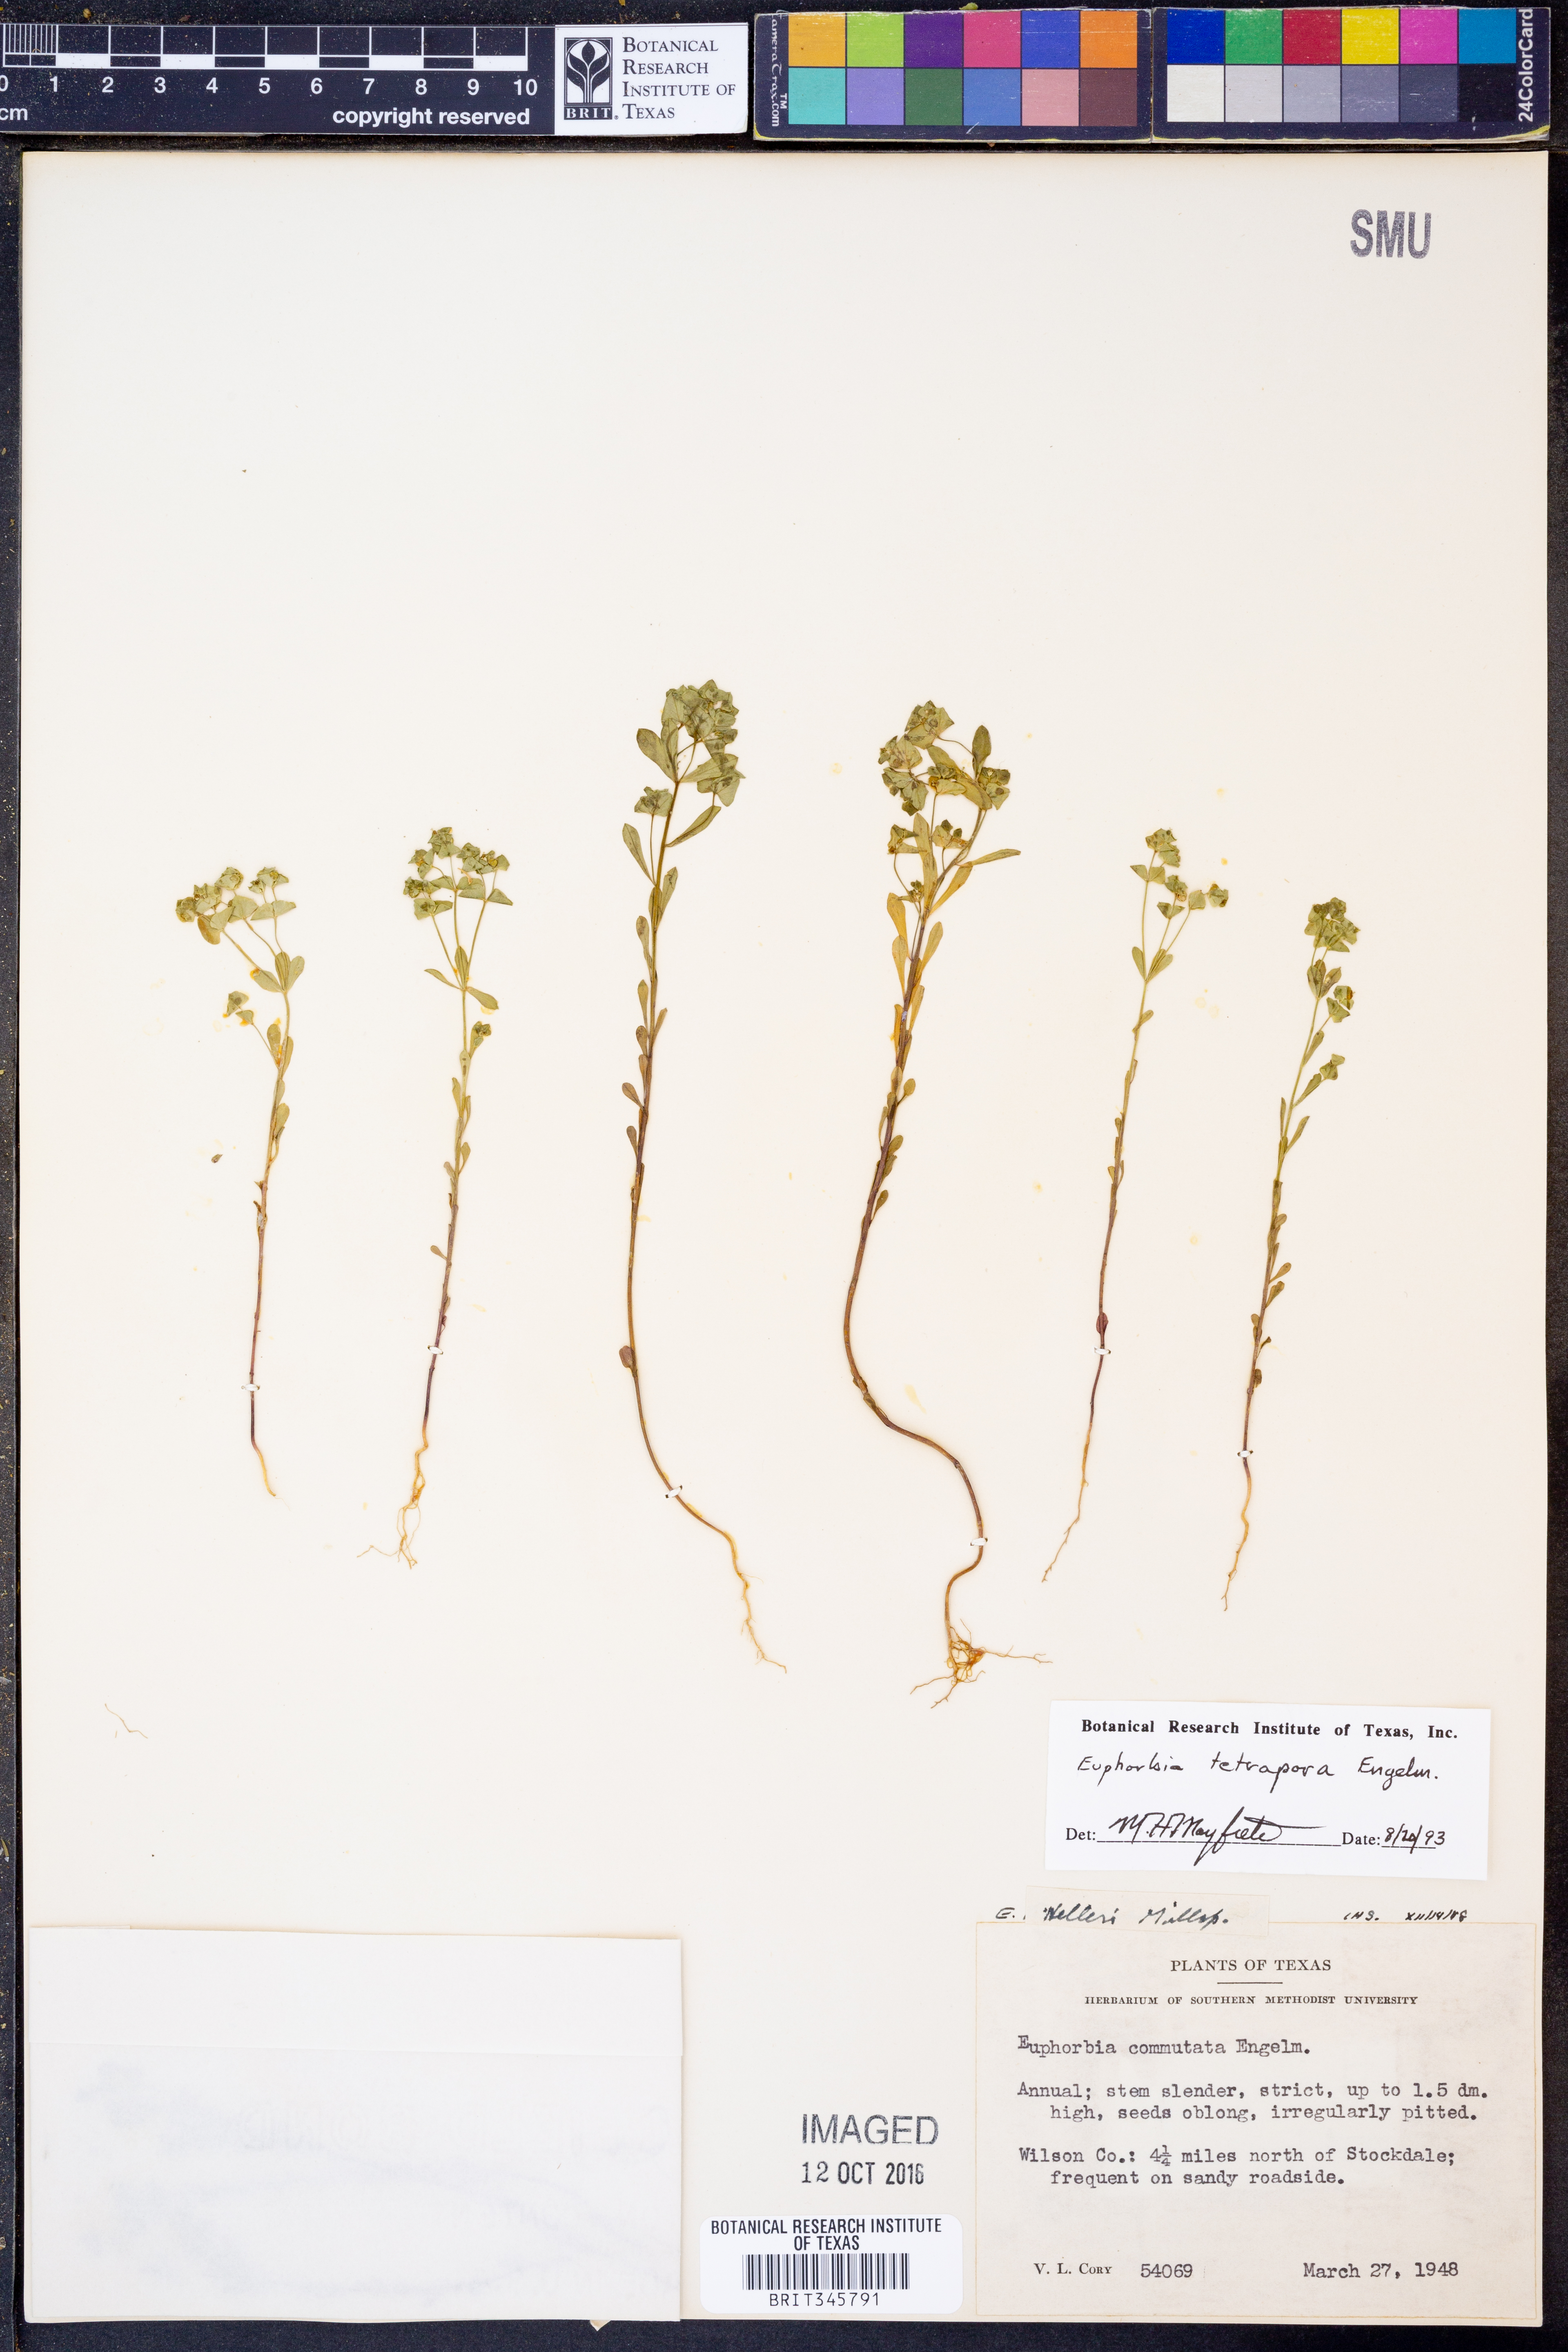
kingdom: Plantae
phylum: Tracheophyta
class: Magnoliopsida
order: Malpighiales
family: Euphorbiaceae
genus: Euphorbia
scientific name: Euphorbia tetrapora
